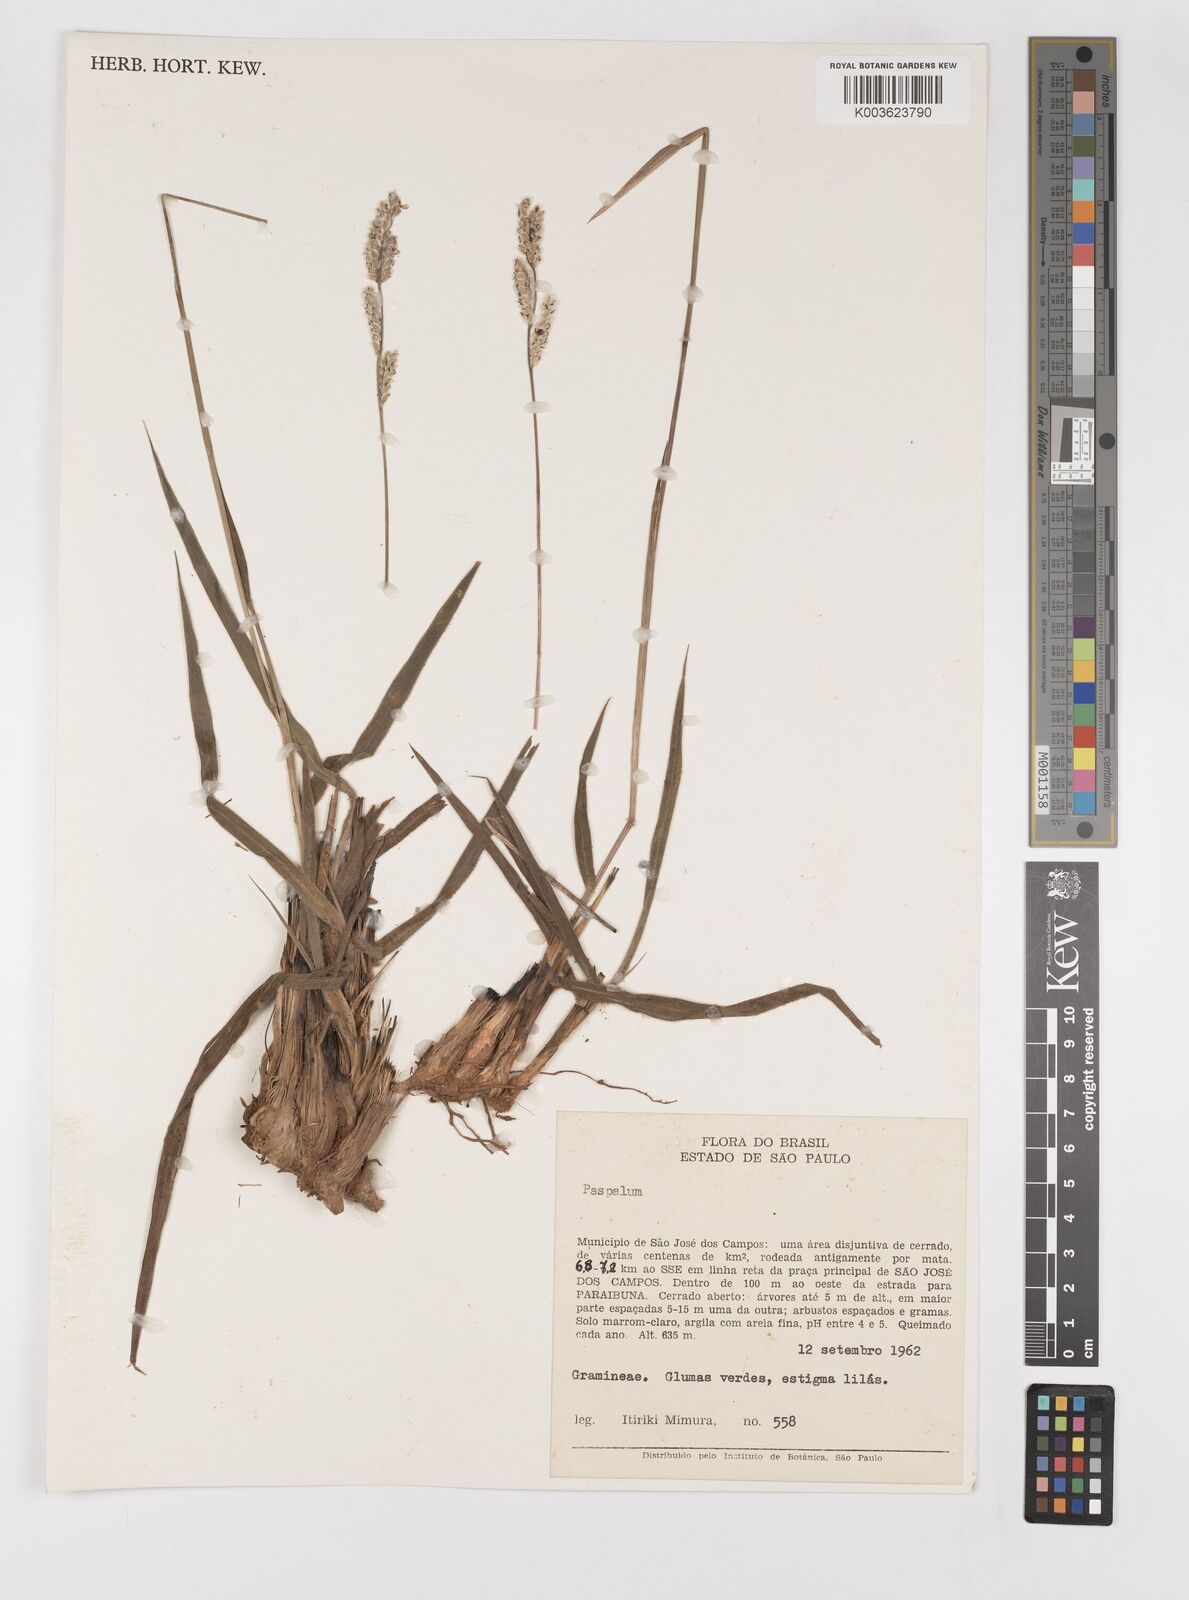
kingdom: Plantae
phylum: Tracheophyta
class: Liliopsida
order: Poales
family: Poaceae
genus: Paspalum
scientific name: Paspalum erianthum
